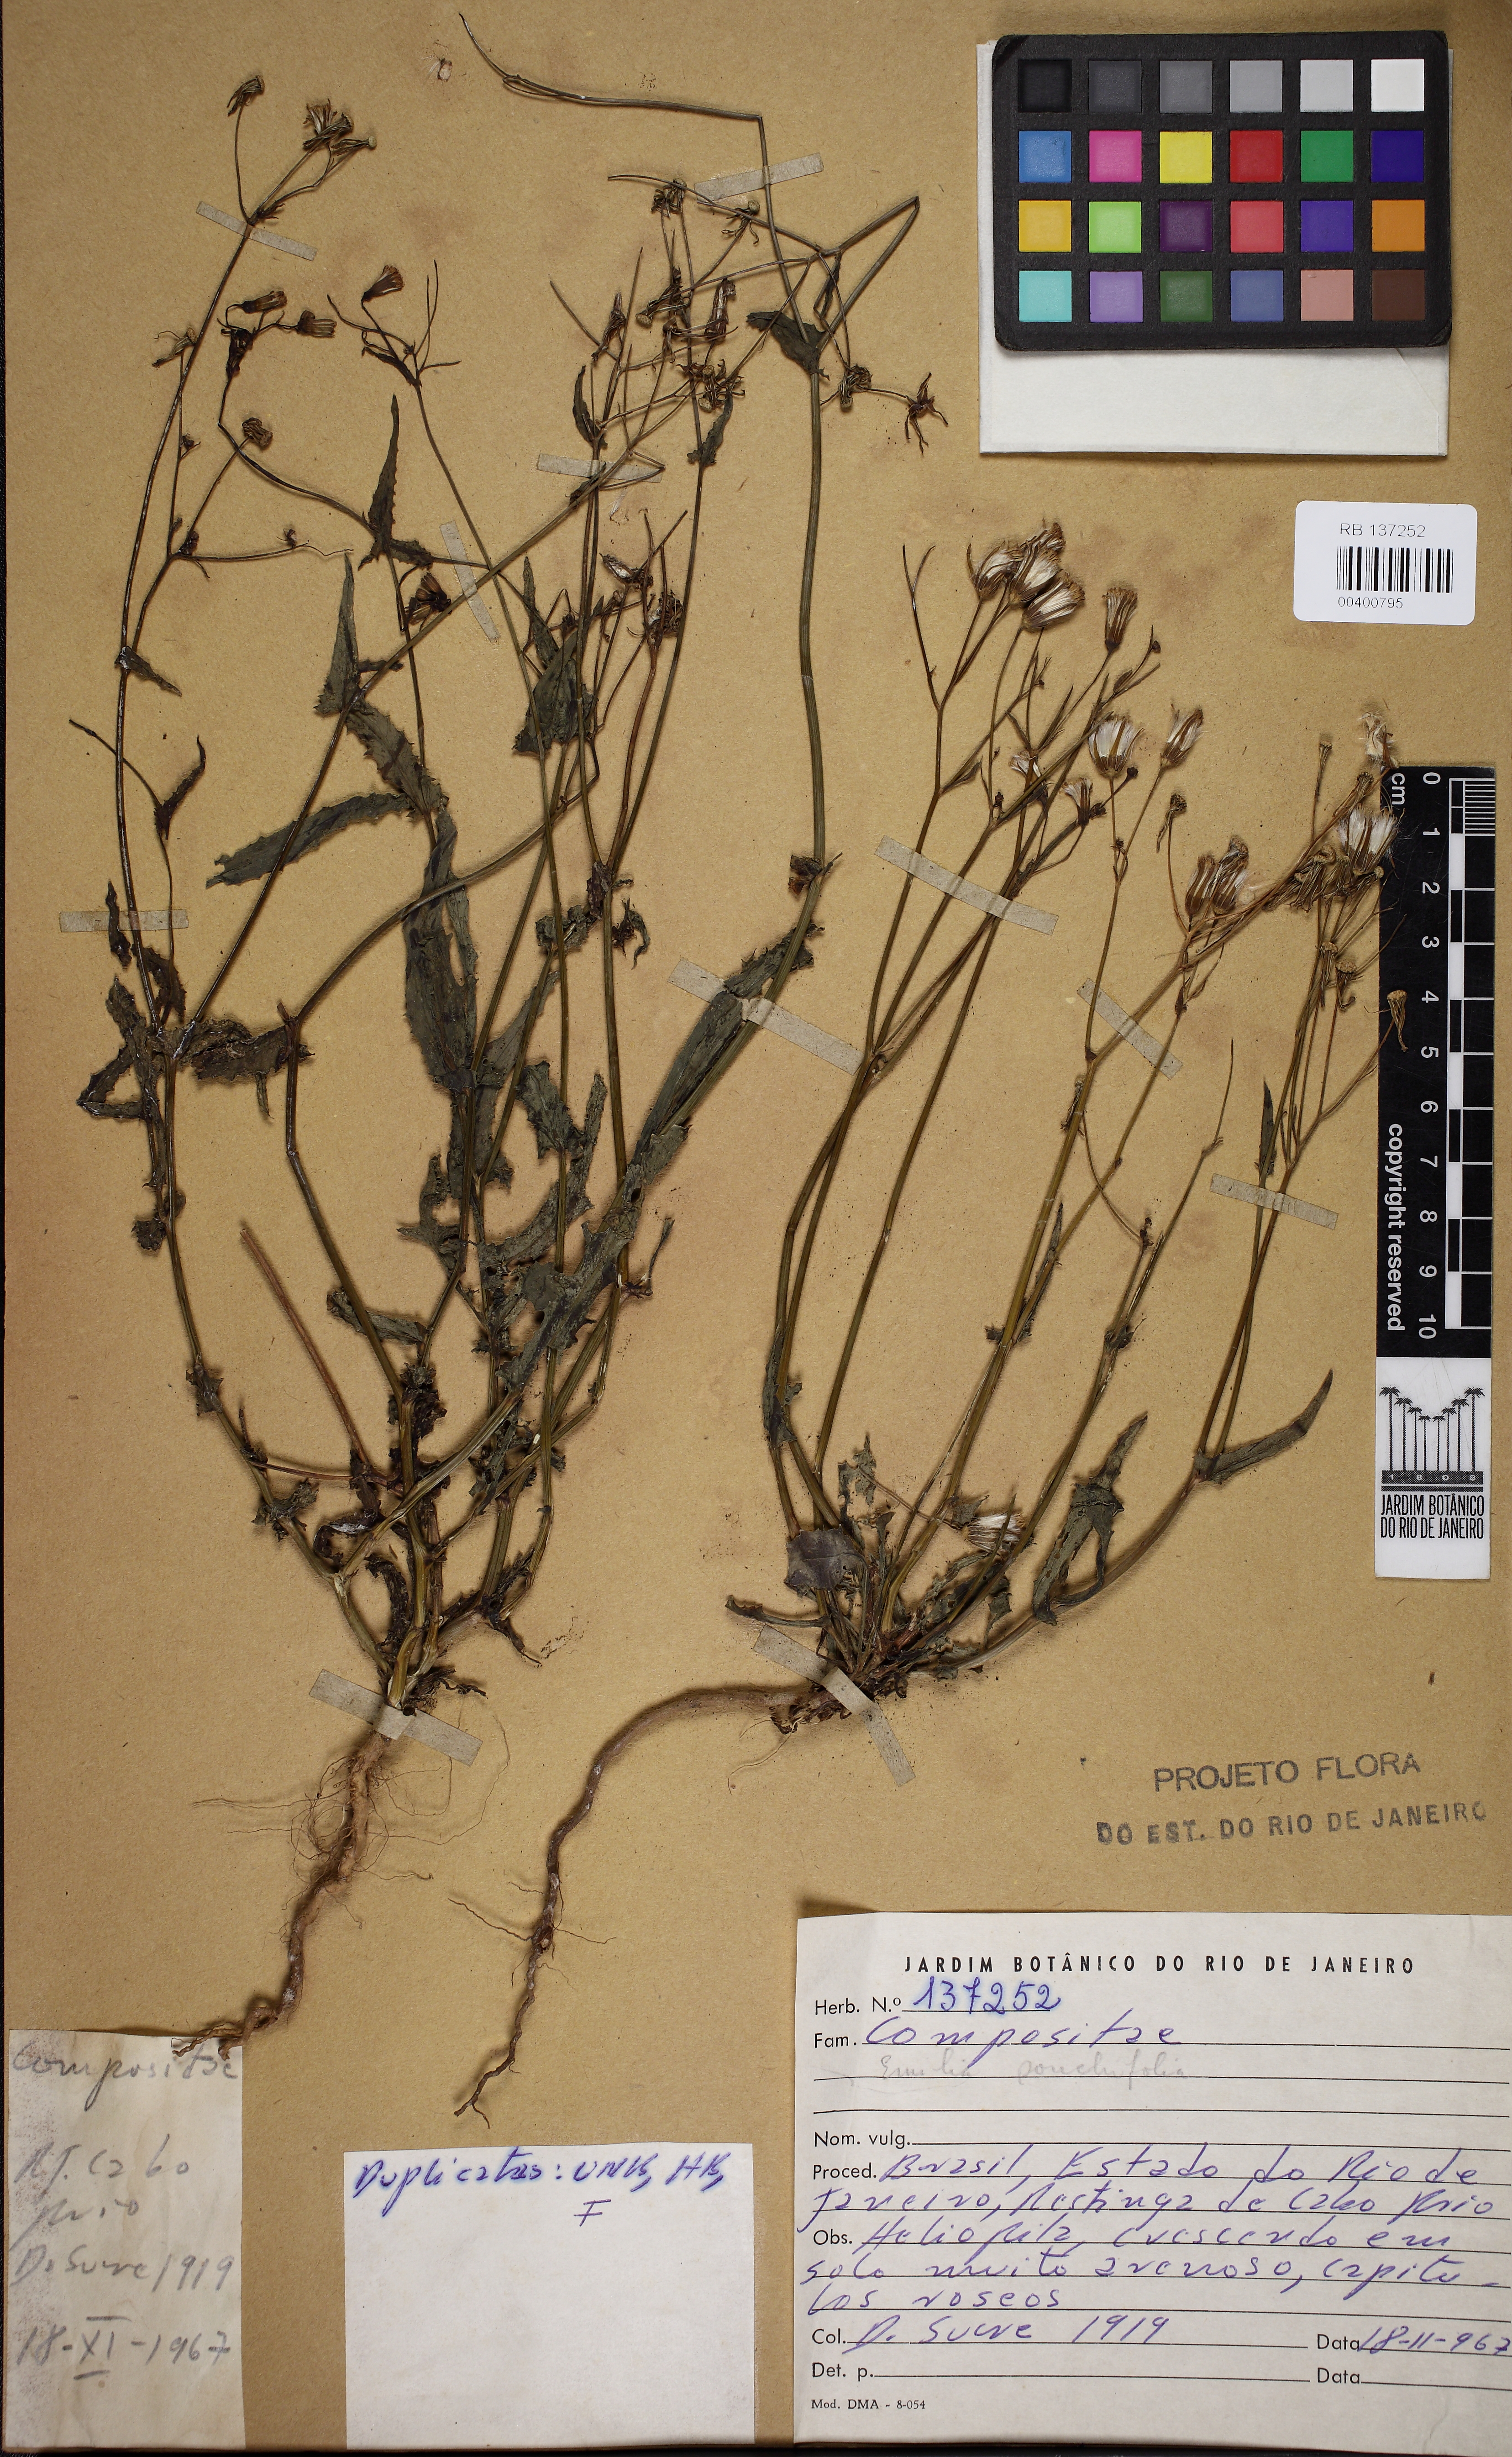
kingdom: Plantae
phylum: Tracheophyta
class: Magnoliopsida
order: Asterales
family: Asteraceae
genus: Emilia
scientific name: Emilia sonchifolia
